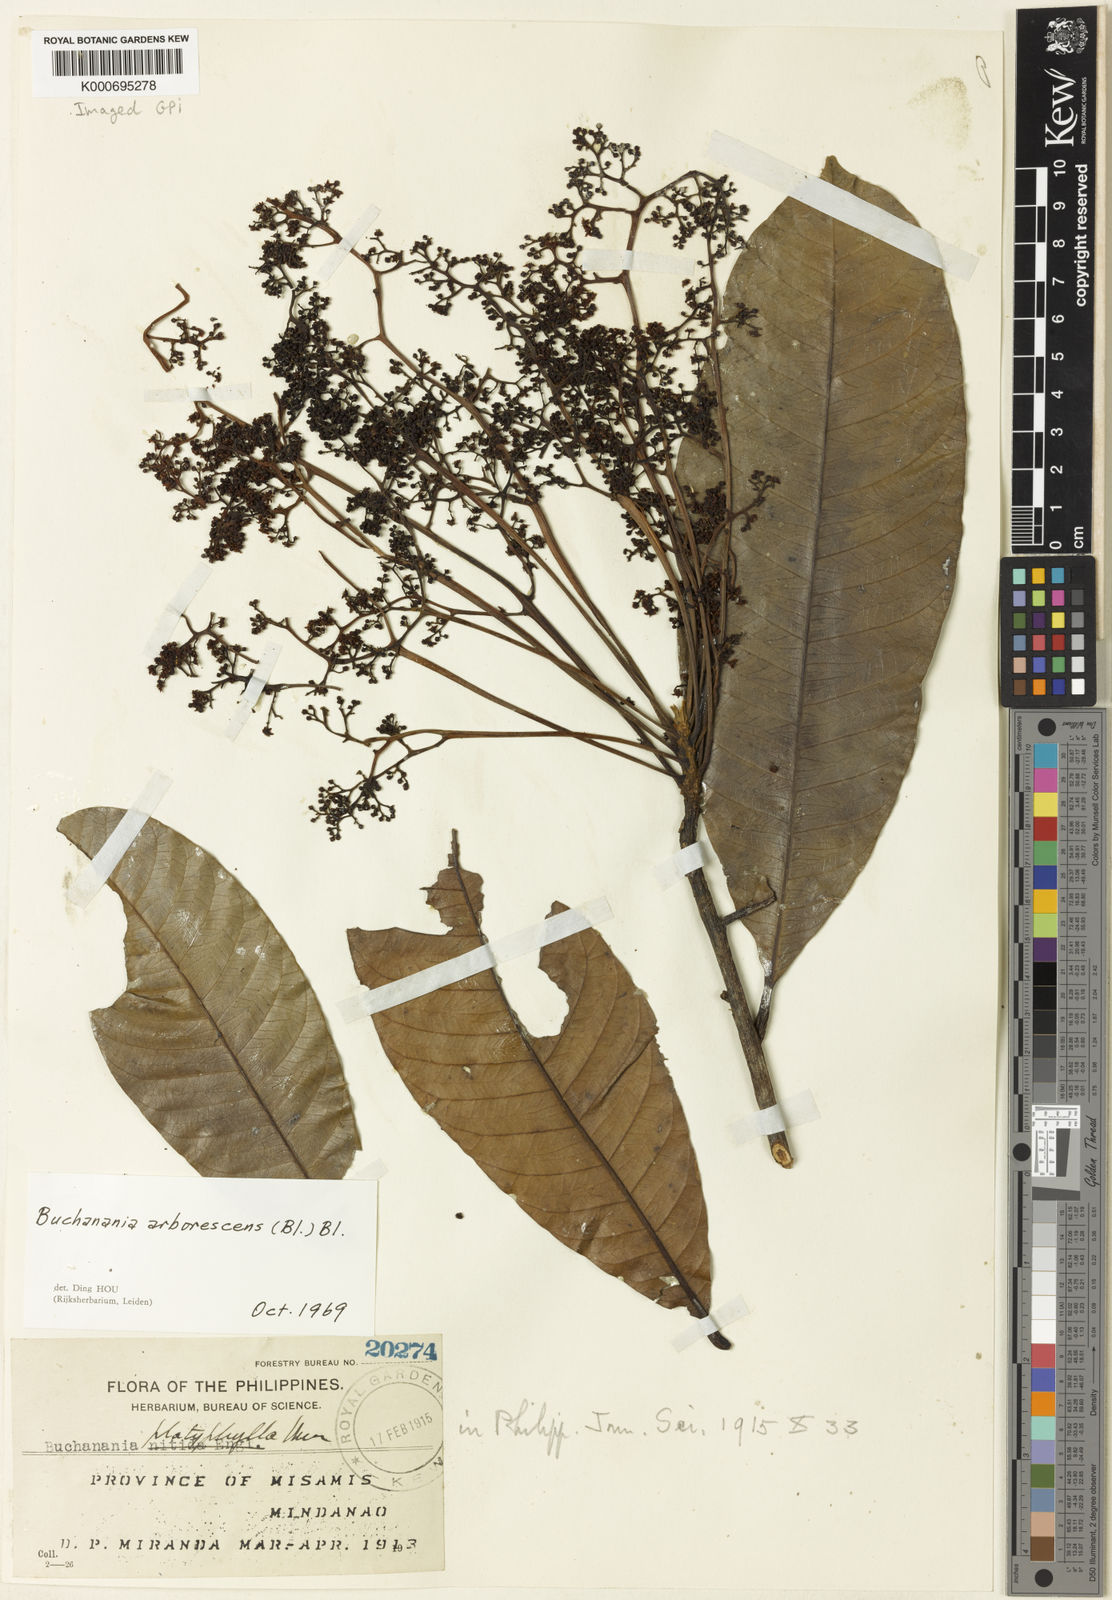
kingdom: Plantae
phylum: Tracheophyta
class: Magnoliopsida
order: Sapindales
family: Anacardiaceae
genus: Buchanania
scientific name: Buchanania arborescens
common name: Sparrow’s mango
